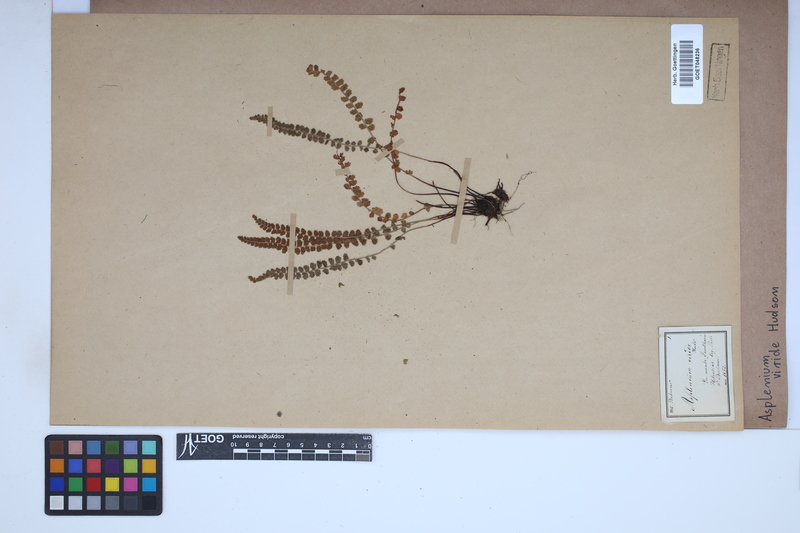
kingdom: Plantae
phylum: Tracheophyta
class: Polypodiopsida
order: Polypodiales
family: Aspleniaceae
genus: Asplenium
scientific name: Asplenium viride
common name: Green spleenwort
